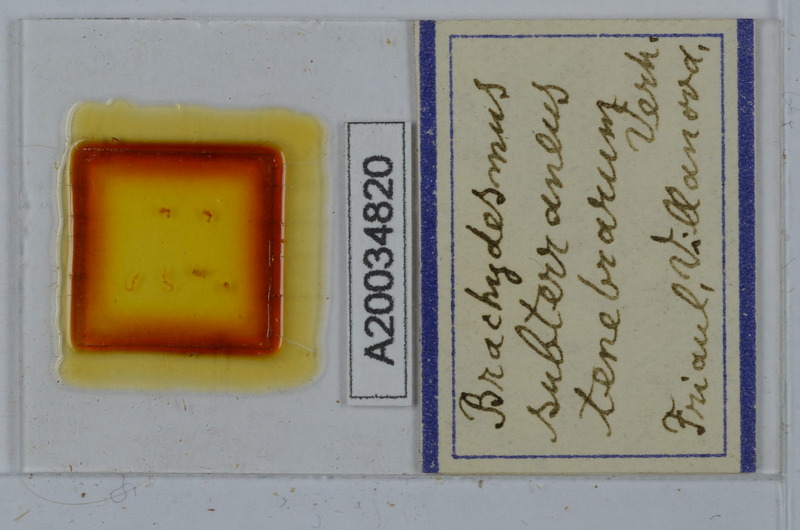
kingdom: Animalia
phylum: Arthropoda
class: Diplopoda
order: Polydesmida
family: Polydesmidae
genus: Brachydesmus
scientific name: Brachydesmus subterraneus
